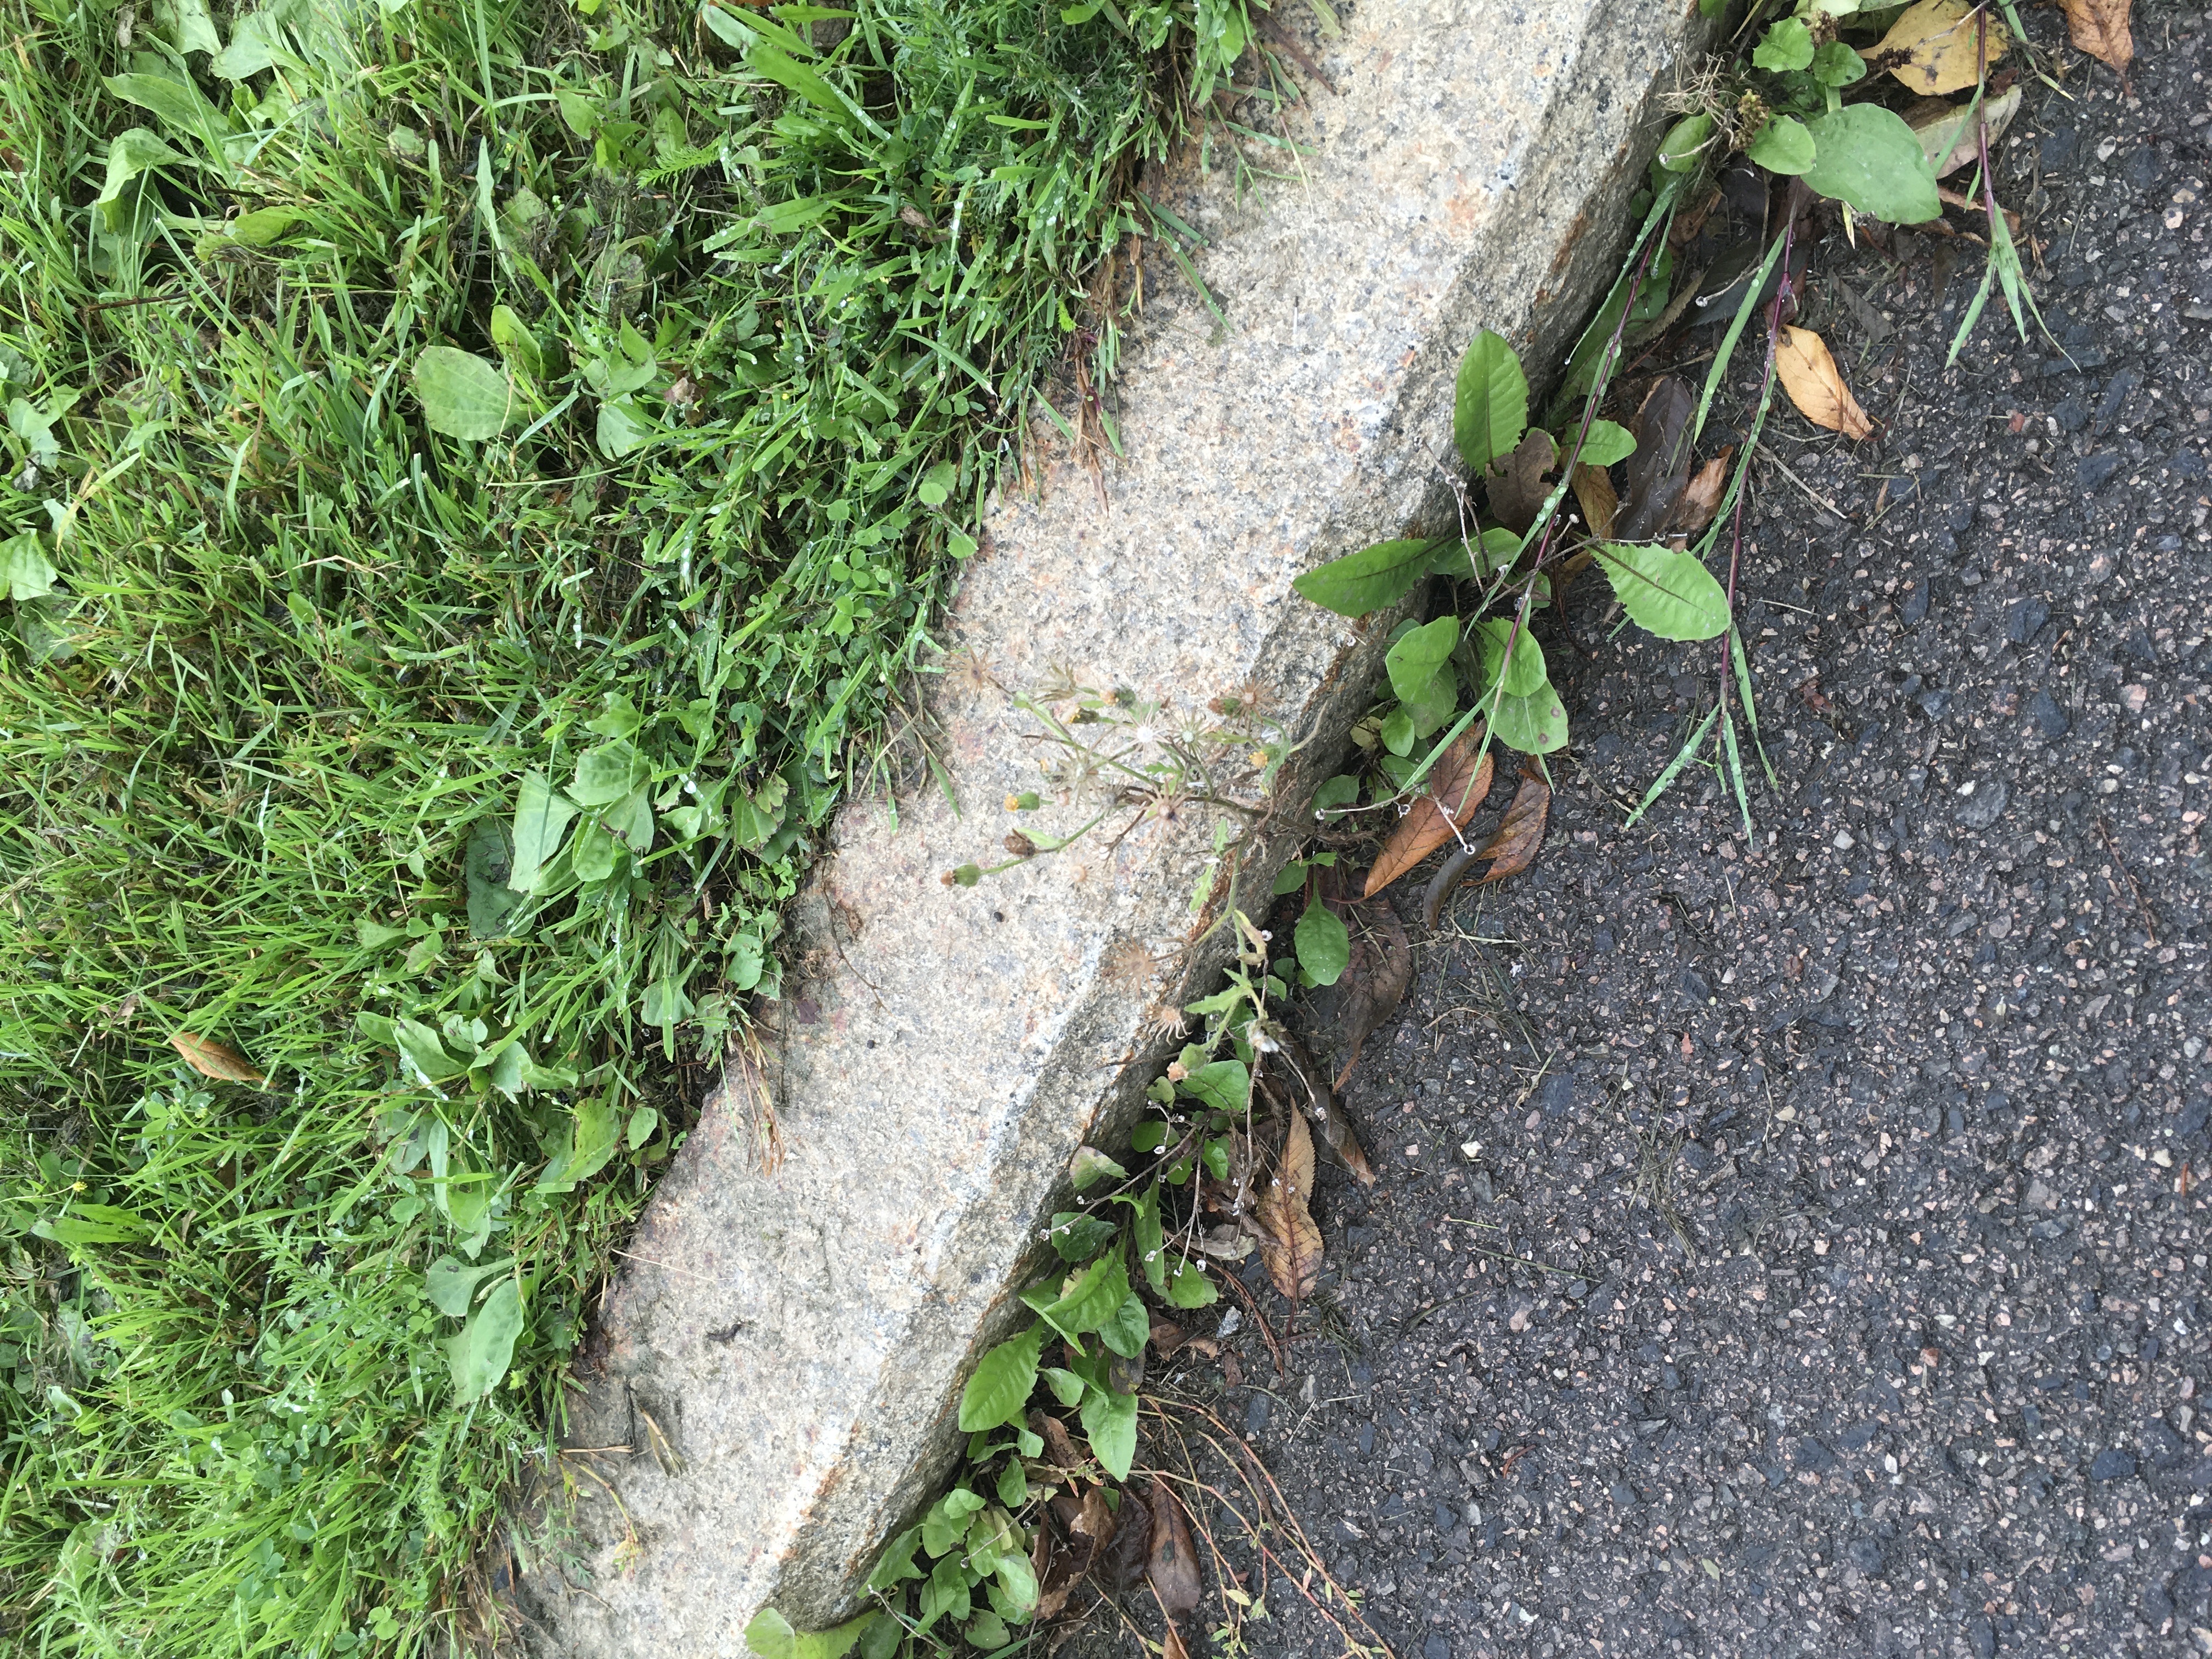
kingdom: Plantae
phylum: Tracheophyta
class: Magnoliopsida
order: Asterales
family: Asteraceae
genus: Senecio
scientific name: Senecio viscosus
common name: klistersvineblom
